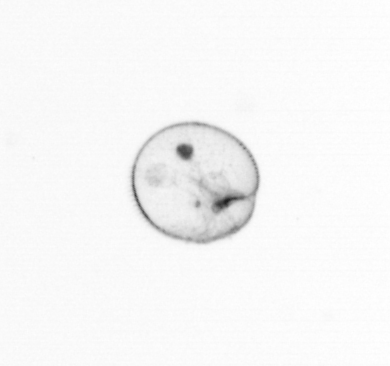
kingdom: Chromista
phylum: Myzozoa
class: Dinophyceae
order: Noctilucales
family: Noctilucaceae
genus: Noctiluca
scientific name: Noctiluca scintillans
